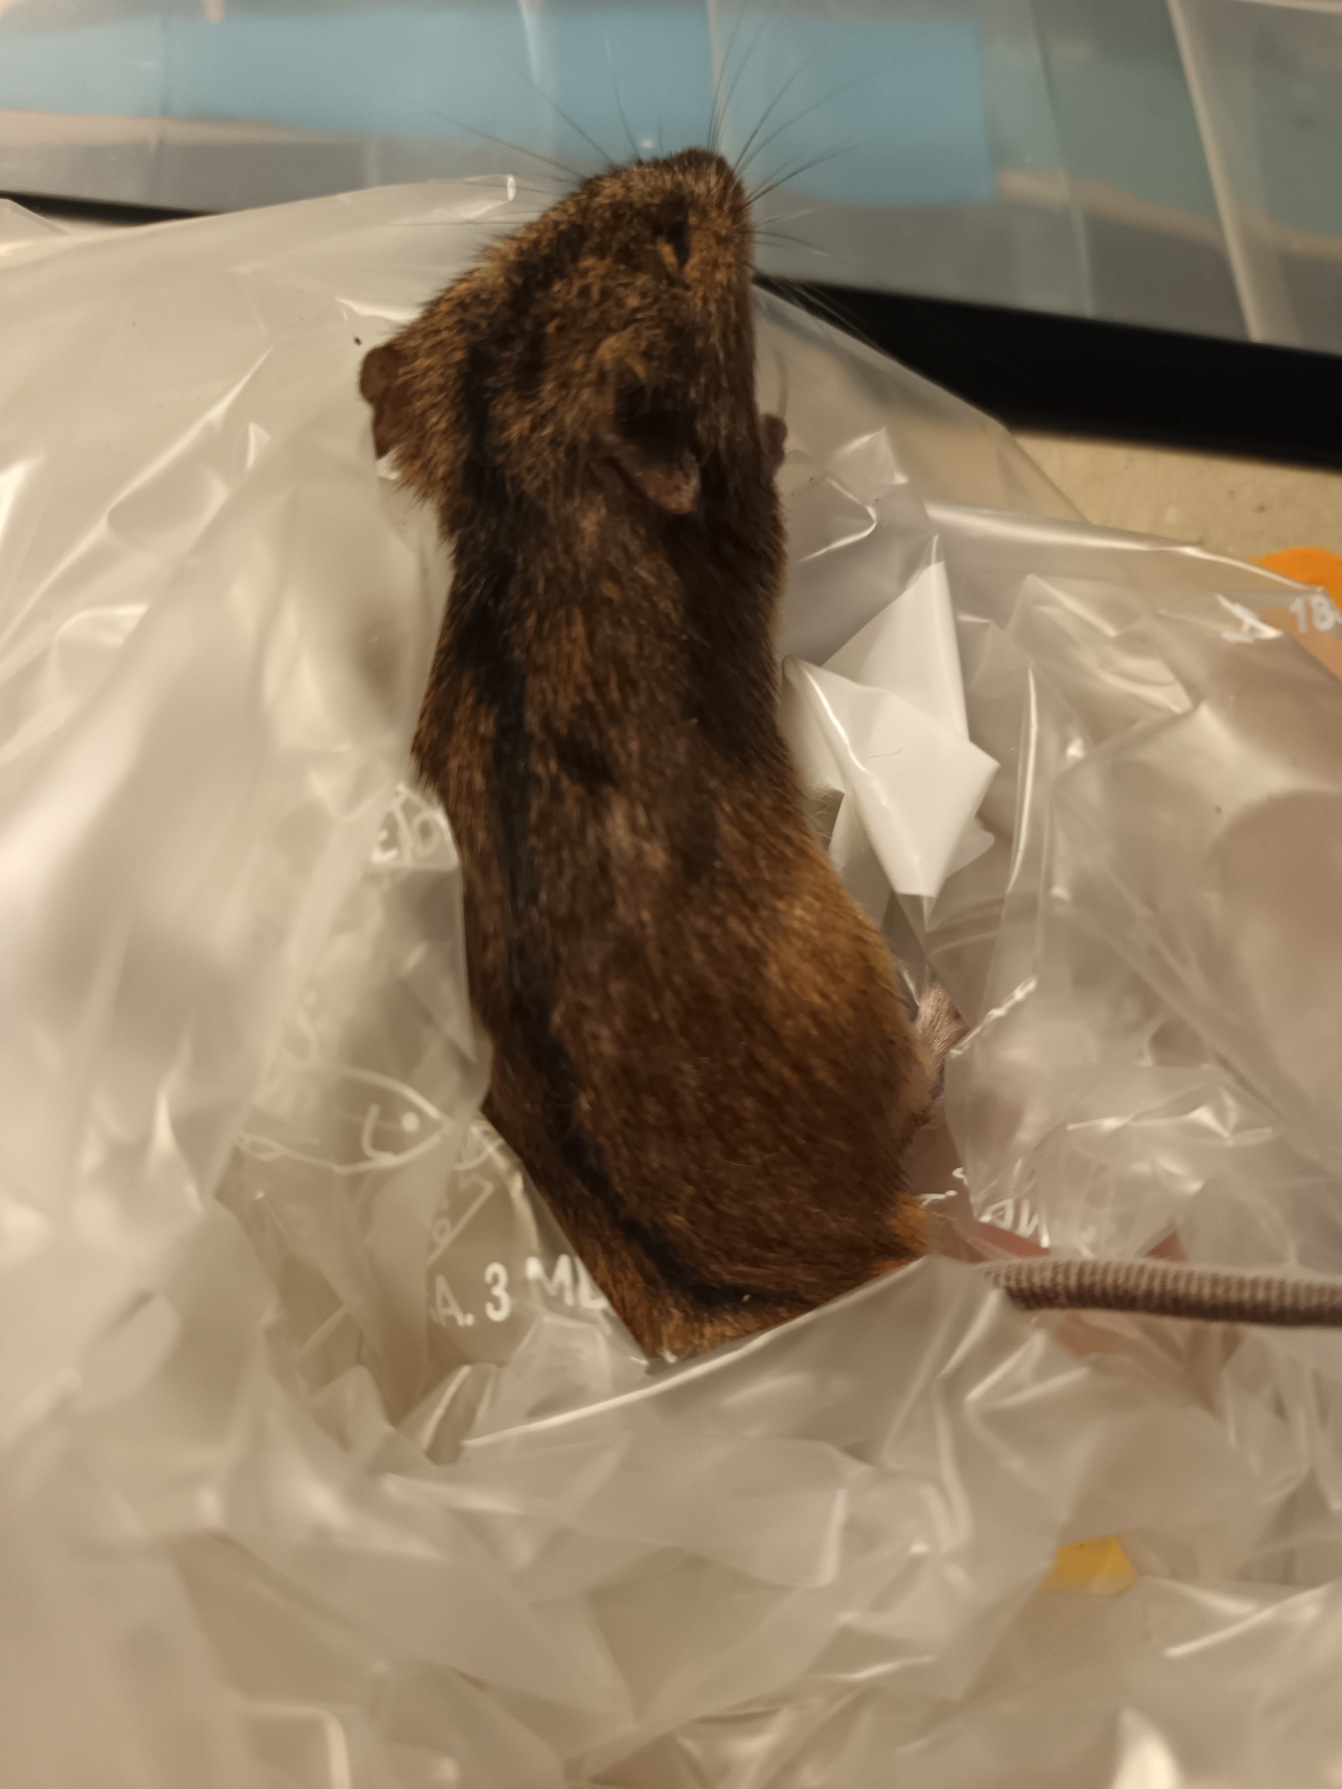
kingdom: Animalia
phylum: Chordata
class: Mammalia
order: Rodentia
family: Muridae
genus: Apodemus
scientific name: Apodemus agrarius
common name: Brandmus
